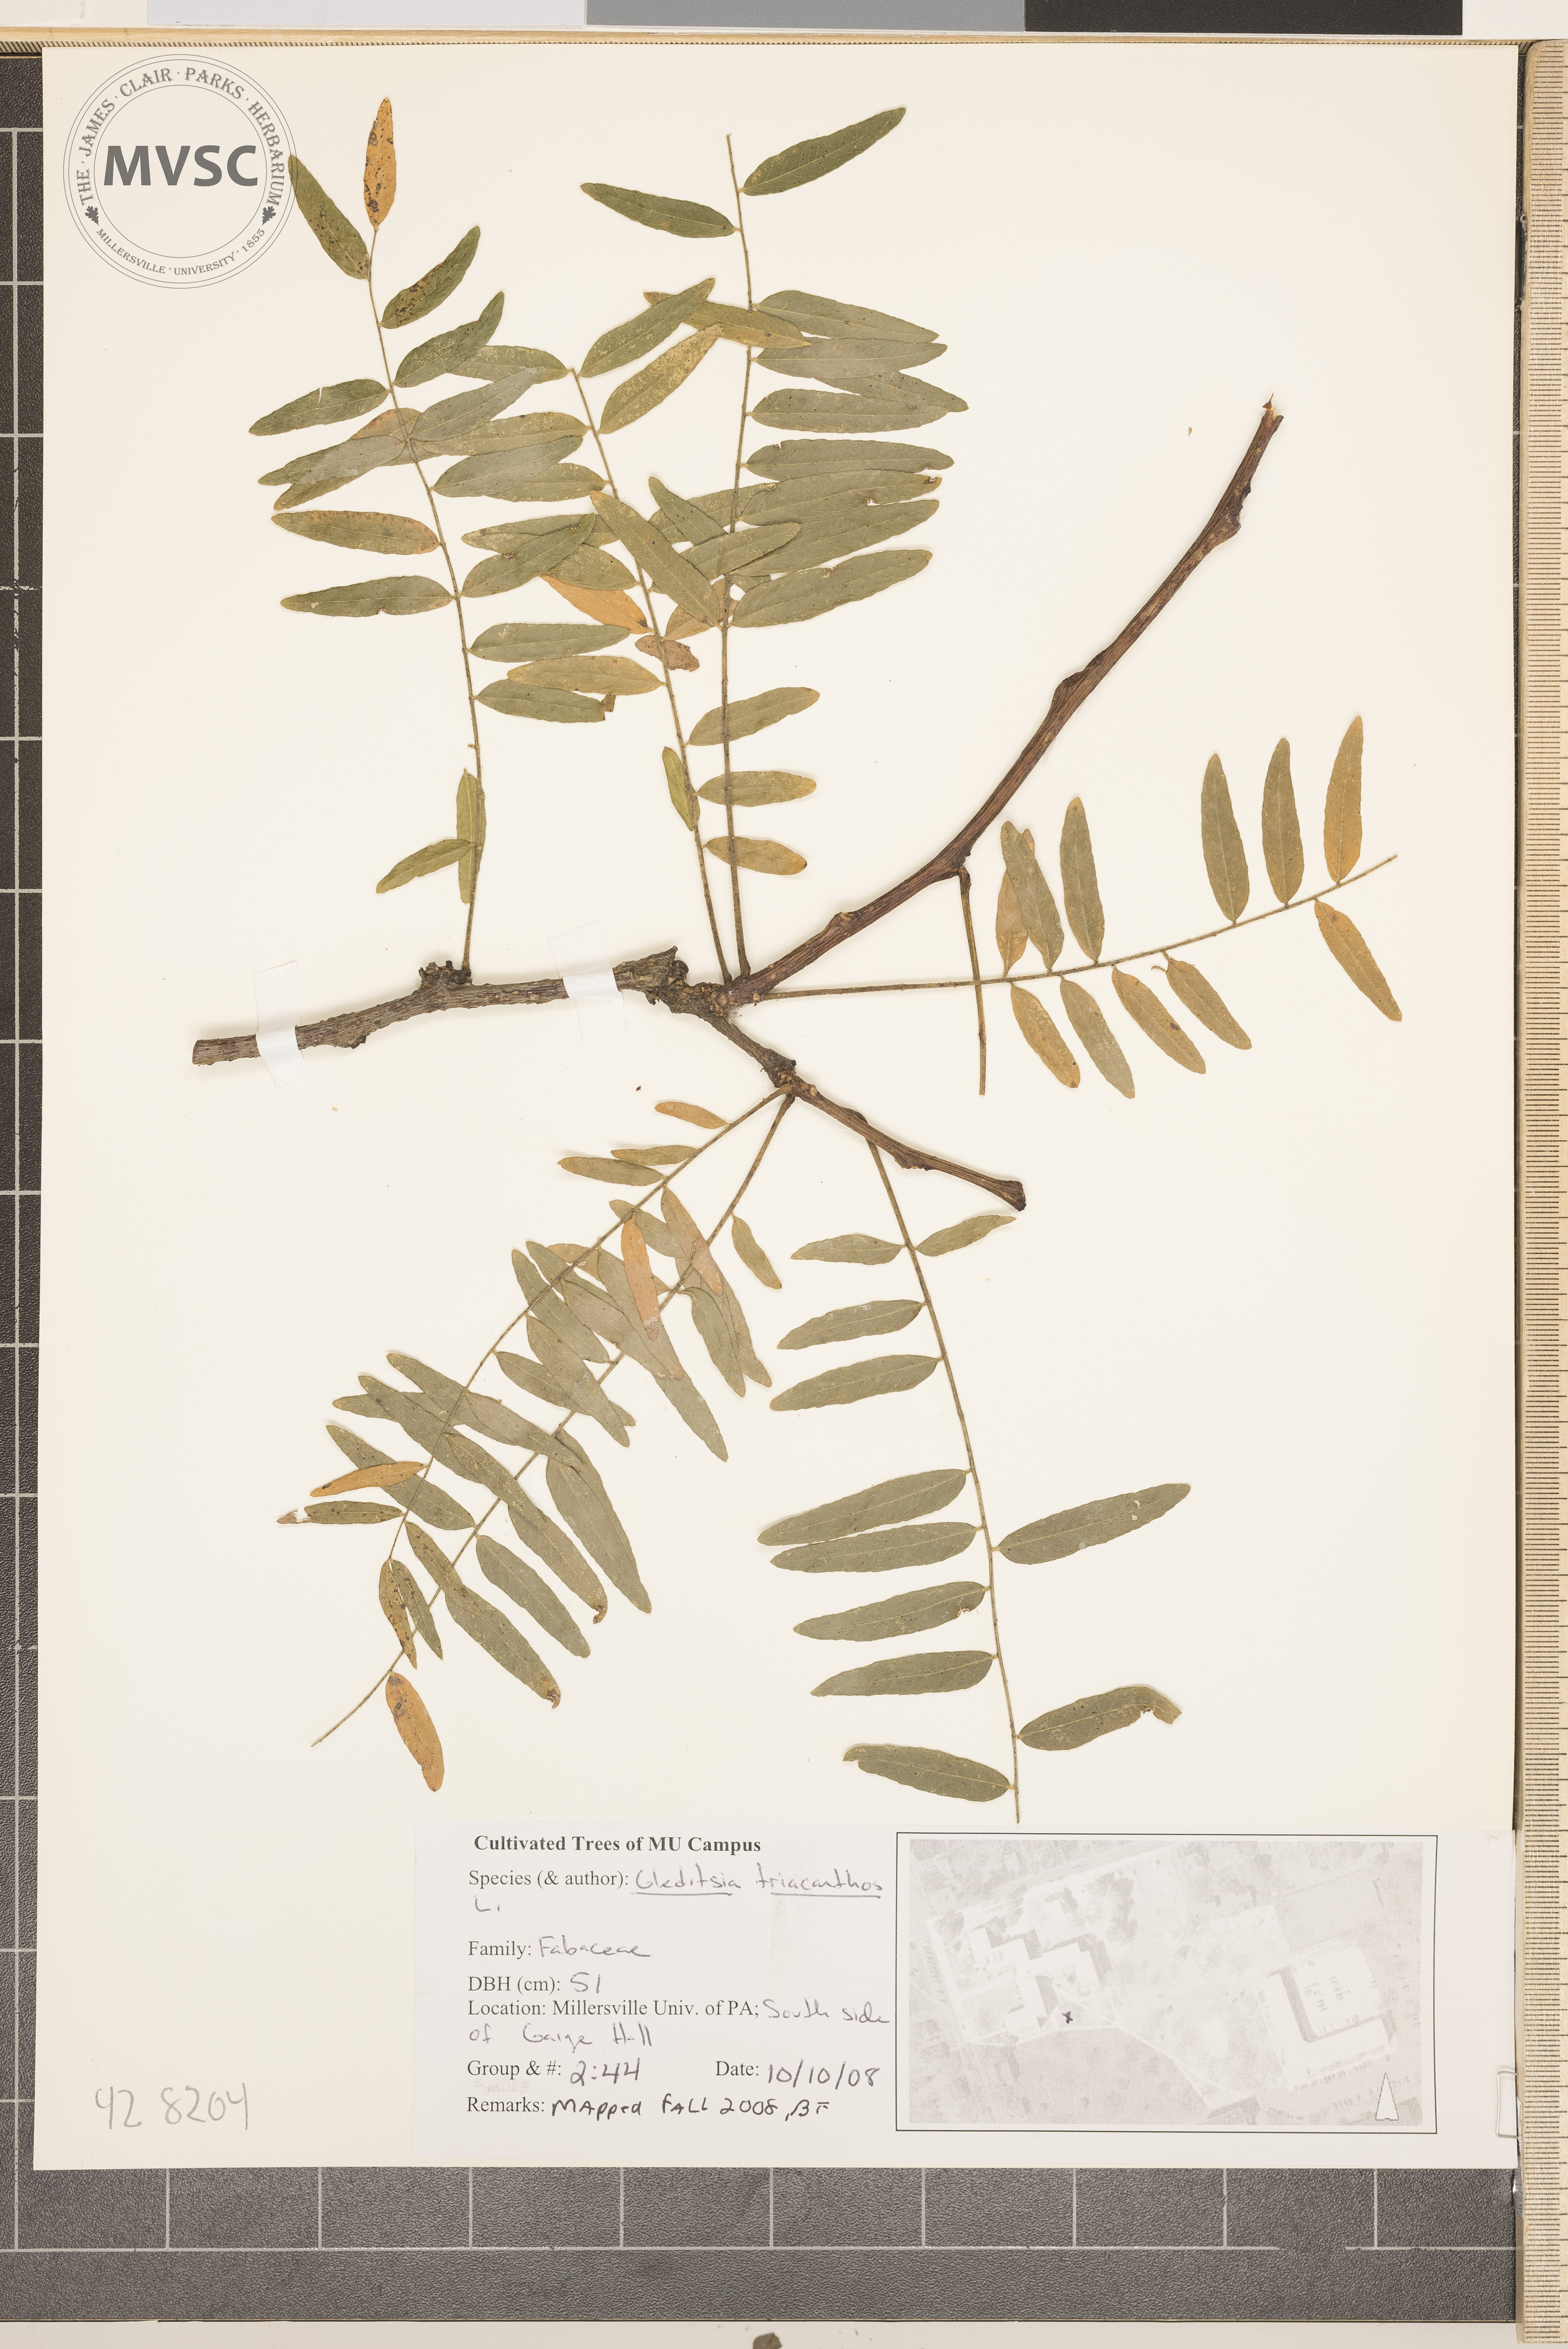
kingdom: Plantae
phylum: Tracheophyta
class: Magnoliopsida
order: Fabales
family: Fabaceae
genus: Gleditsia
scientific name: Gleditsia triacanthos
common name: Honey Locust
